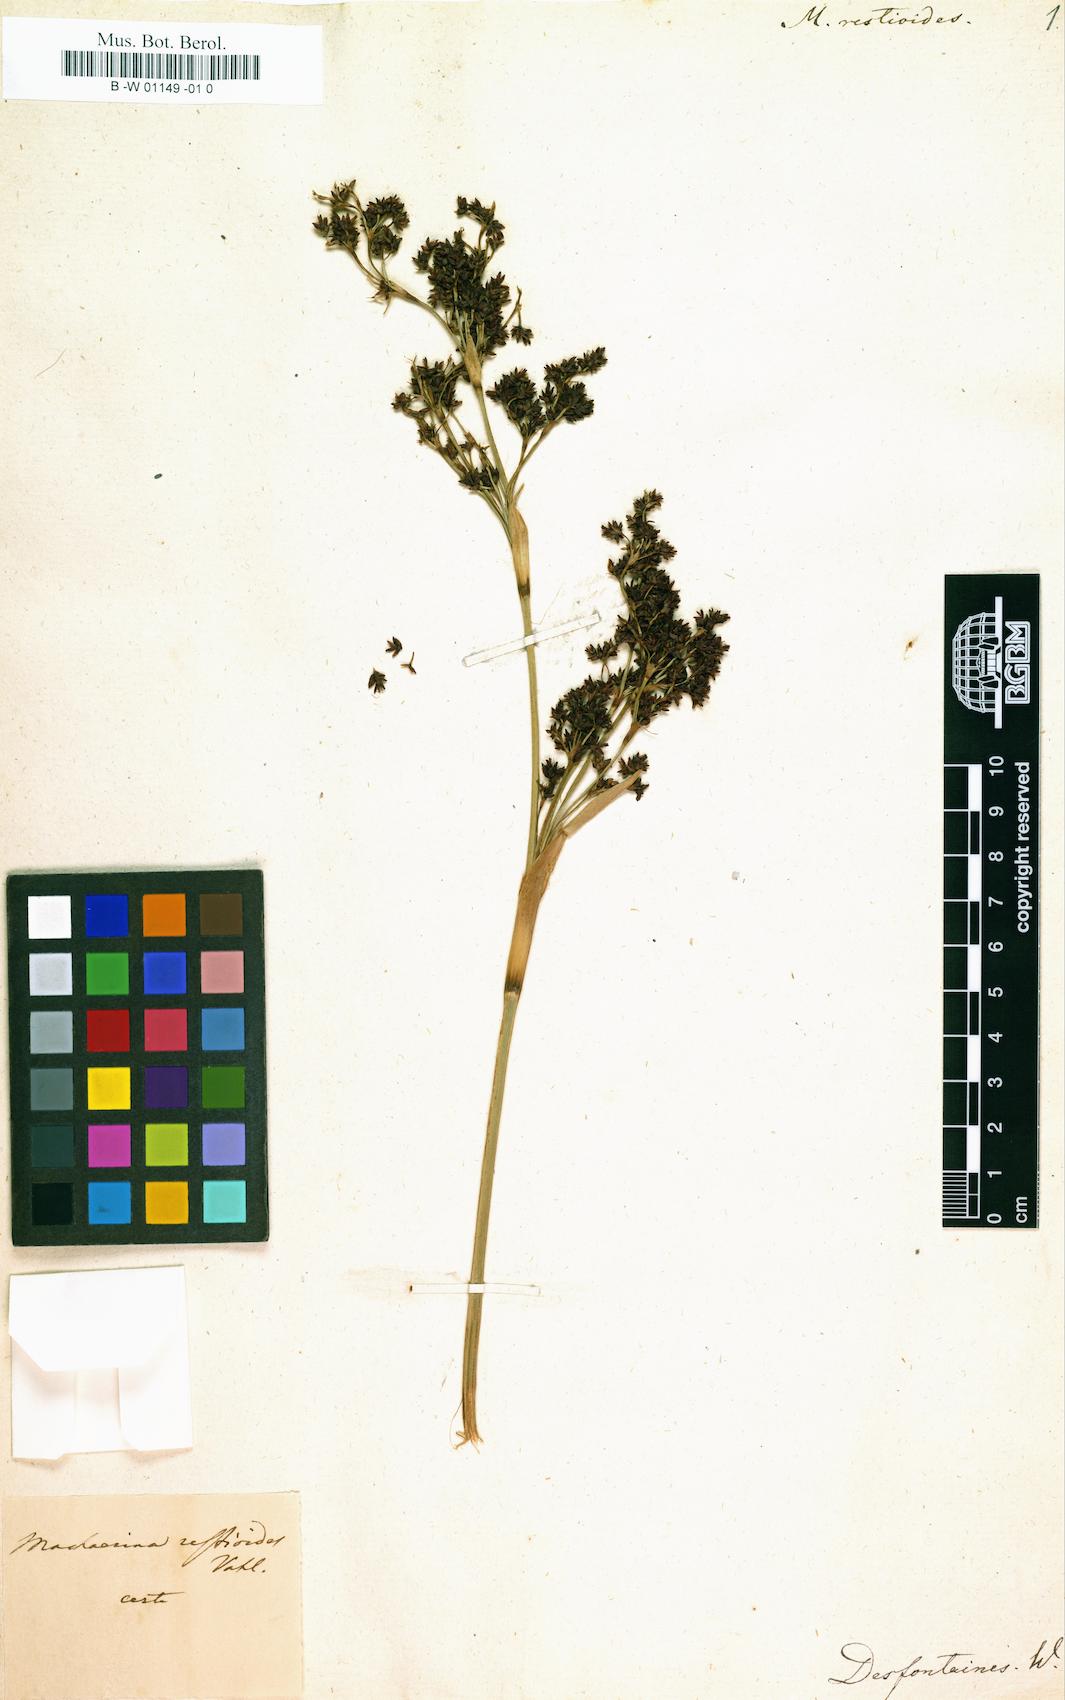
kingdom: Plantae
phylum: Tracheophyta
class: Liliopsida
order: Poales
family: Cyperaceae
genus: Machaerina
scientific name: Machaerina restioides
